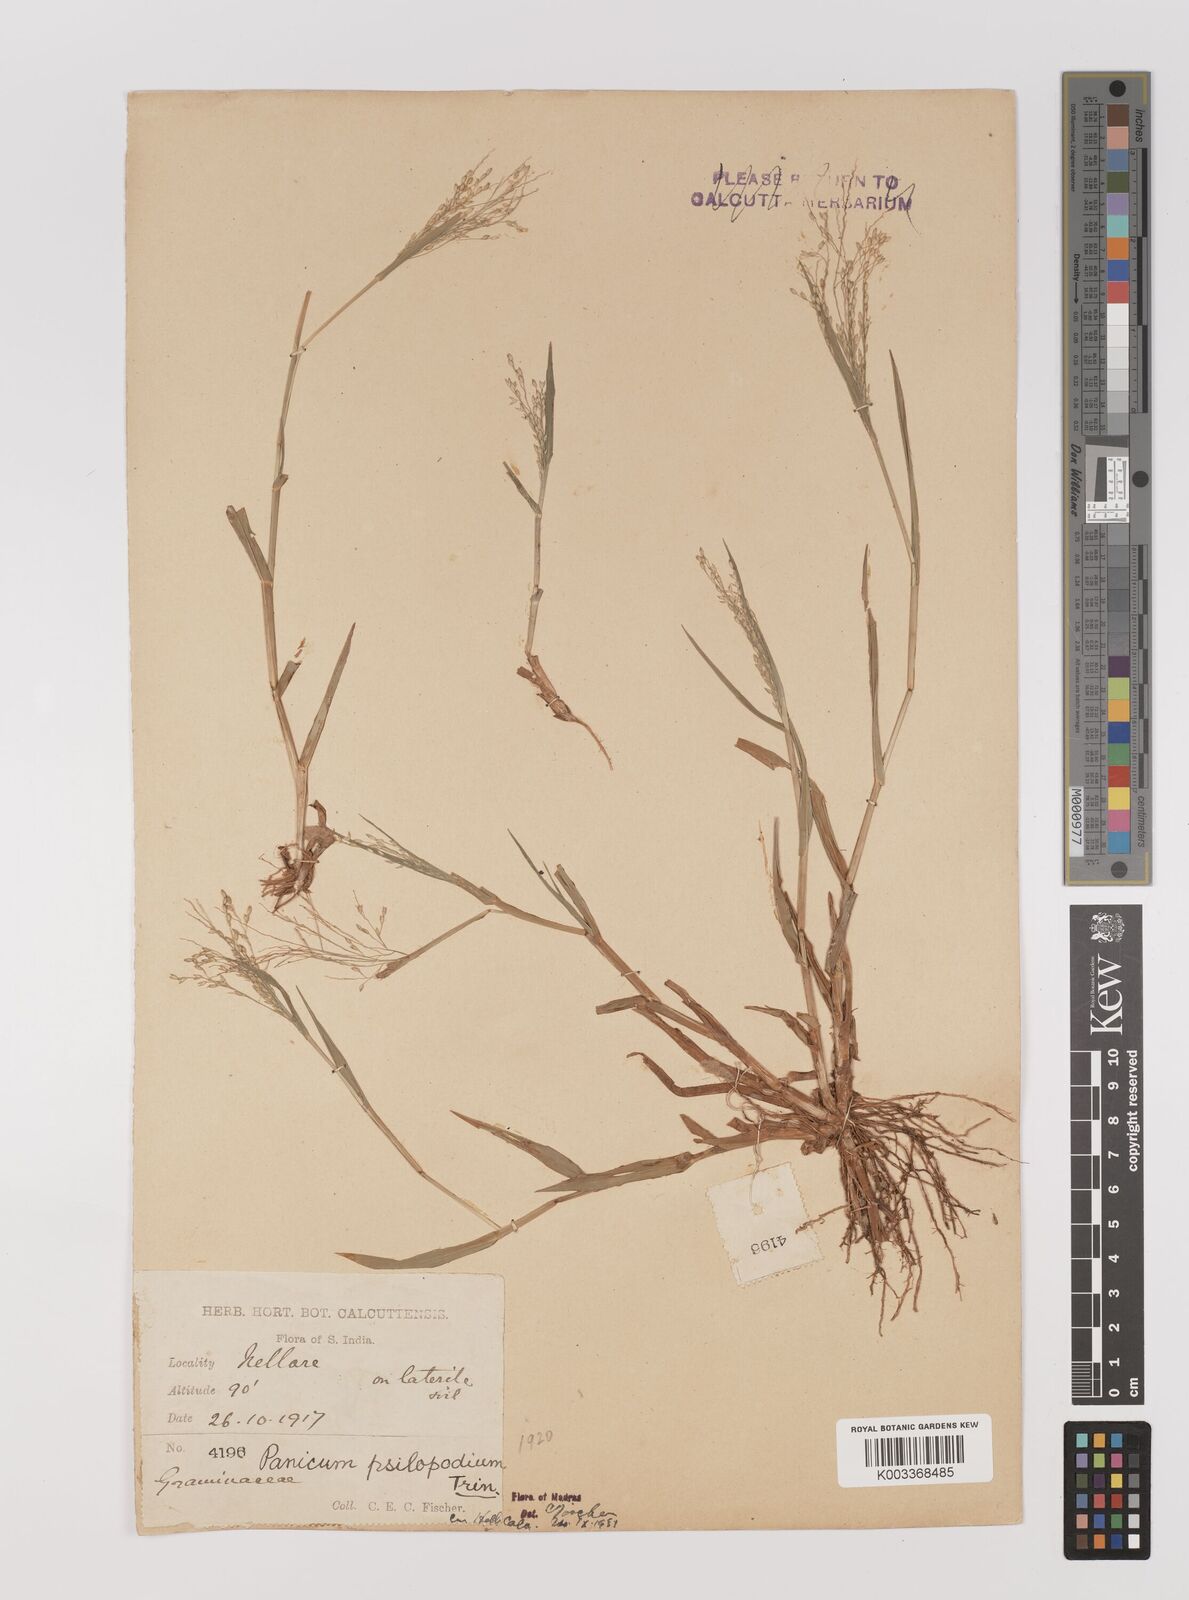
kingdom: Plantae
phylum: Tracheophyta
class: Liliopsida
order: Poales
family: Poaceae
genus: Panicum
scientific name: Panicum sumatrense
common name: Little millet
